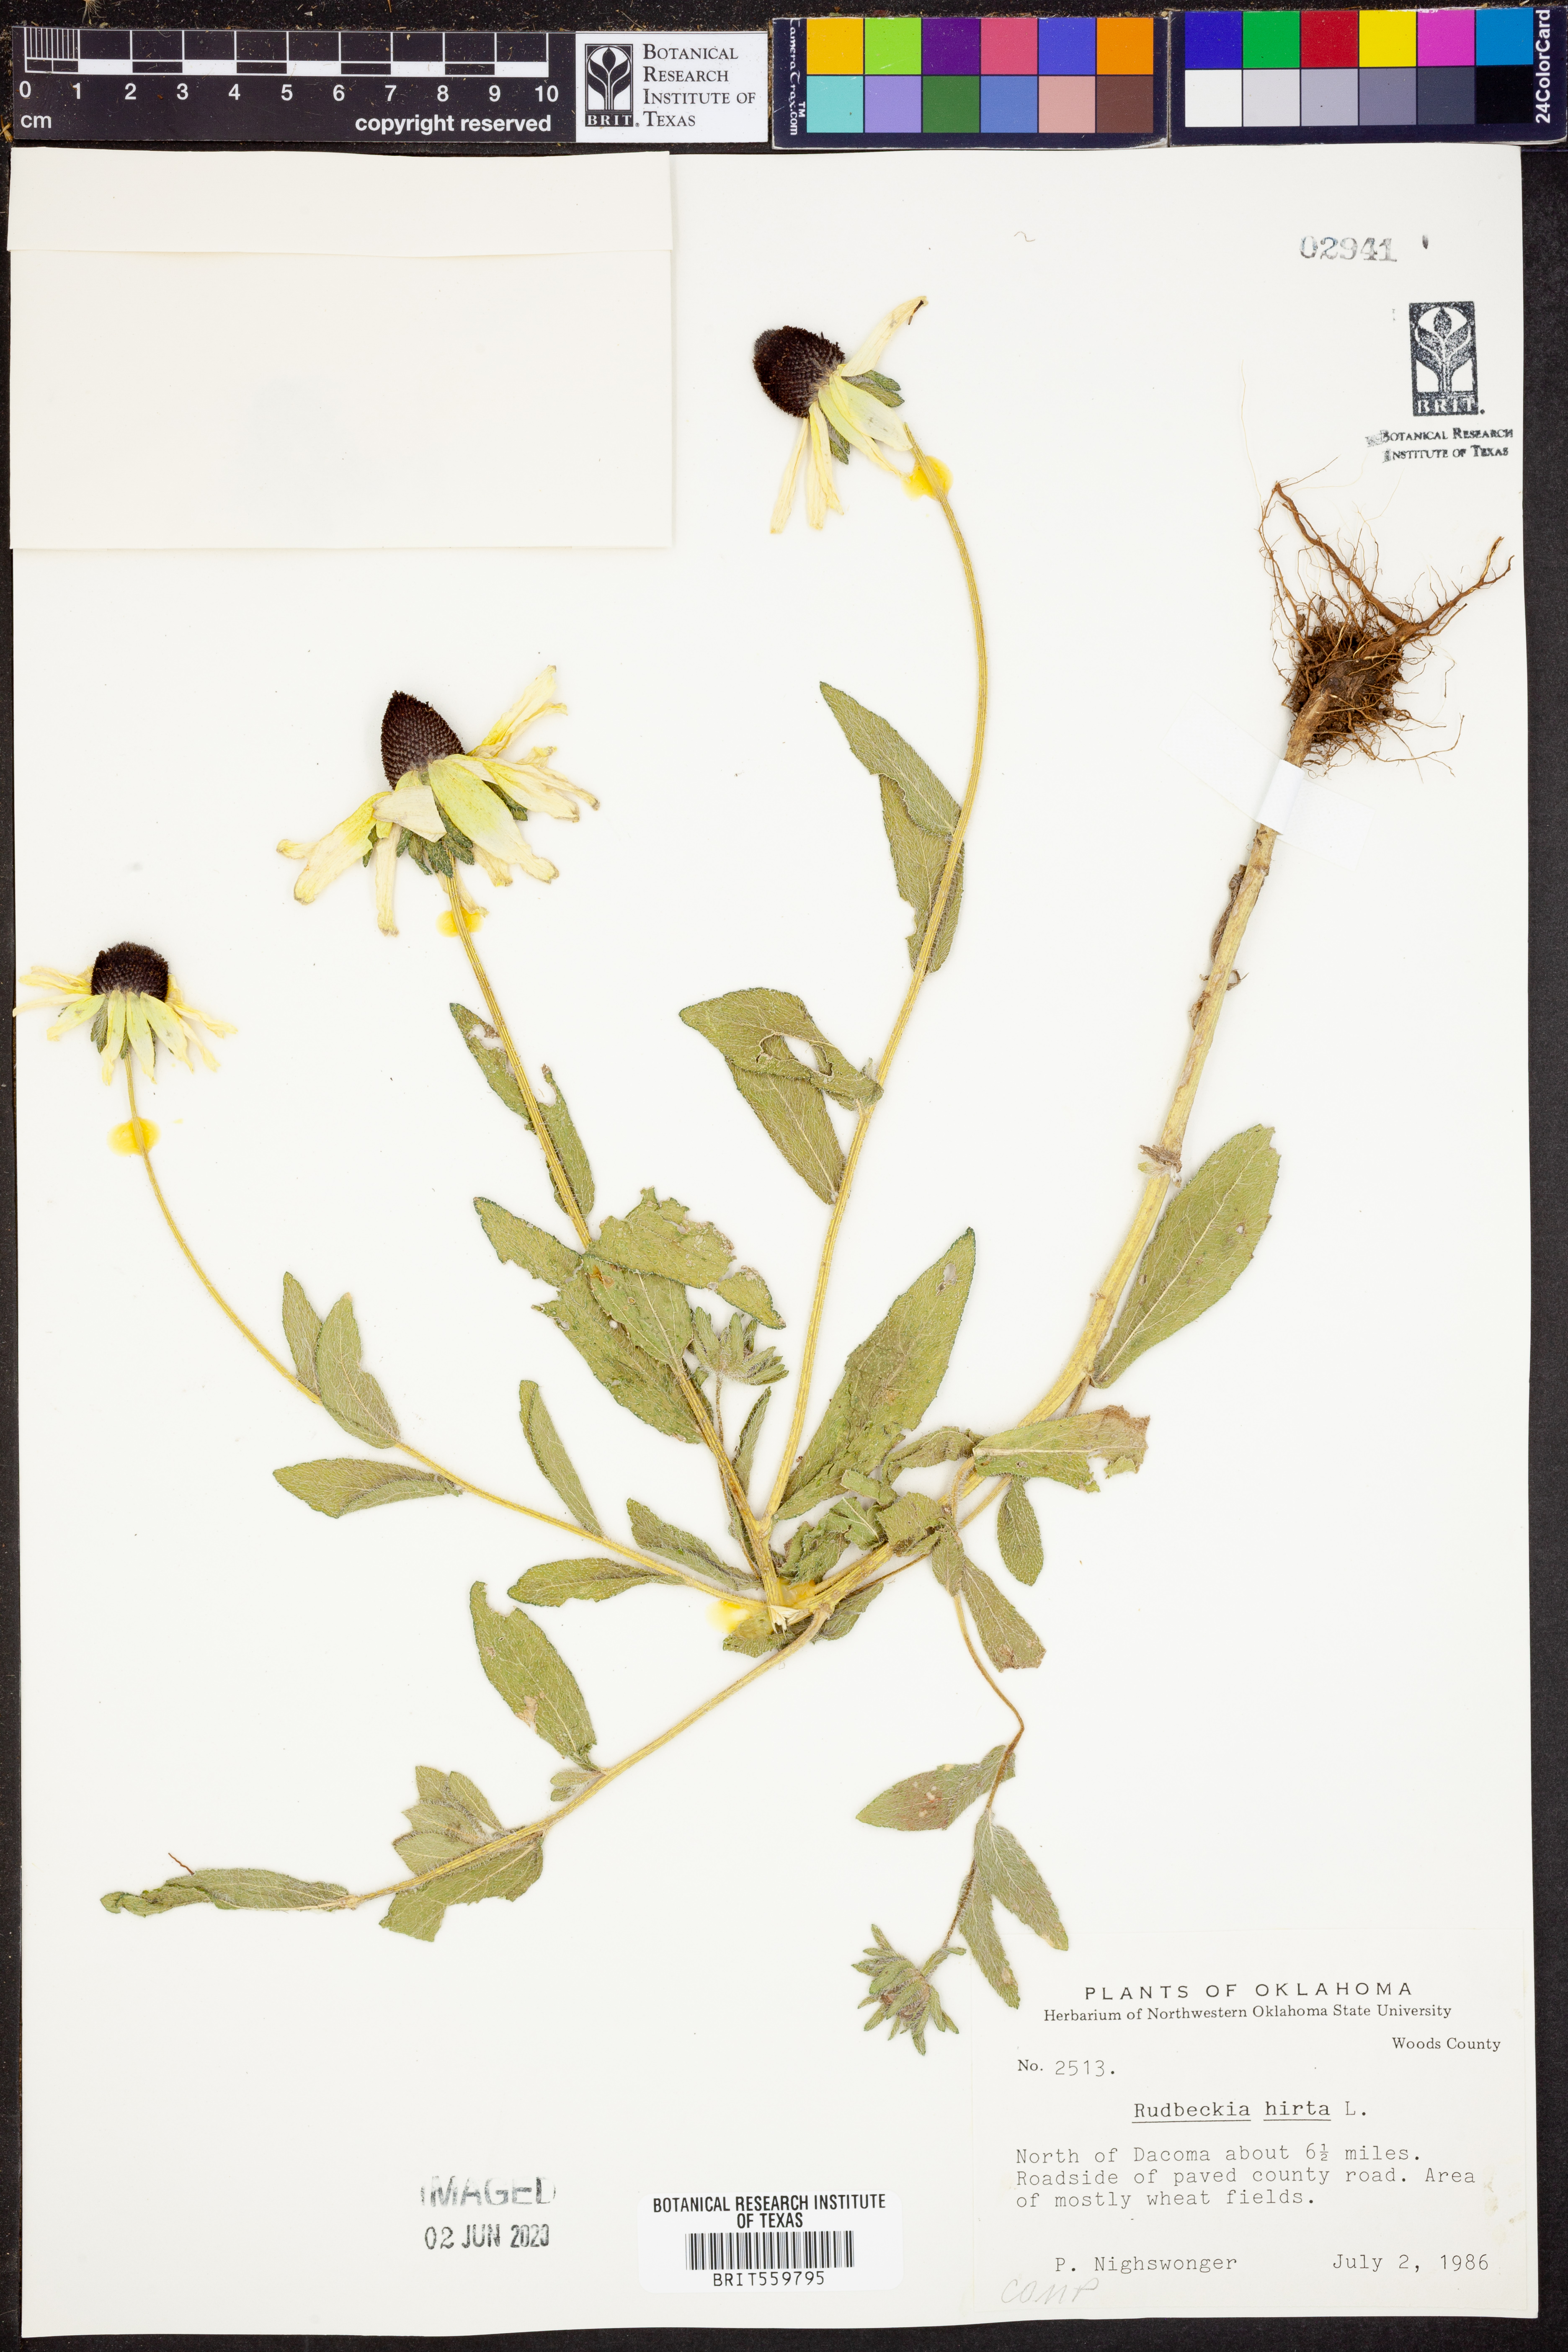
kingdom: Plantae
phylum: Tracheophyta
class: Magnoliopsida
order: Asterales
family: Asteraceae
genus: Rudbeckia
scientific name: Rudbeckia hirta
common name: Black-eyed-susan
